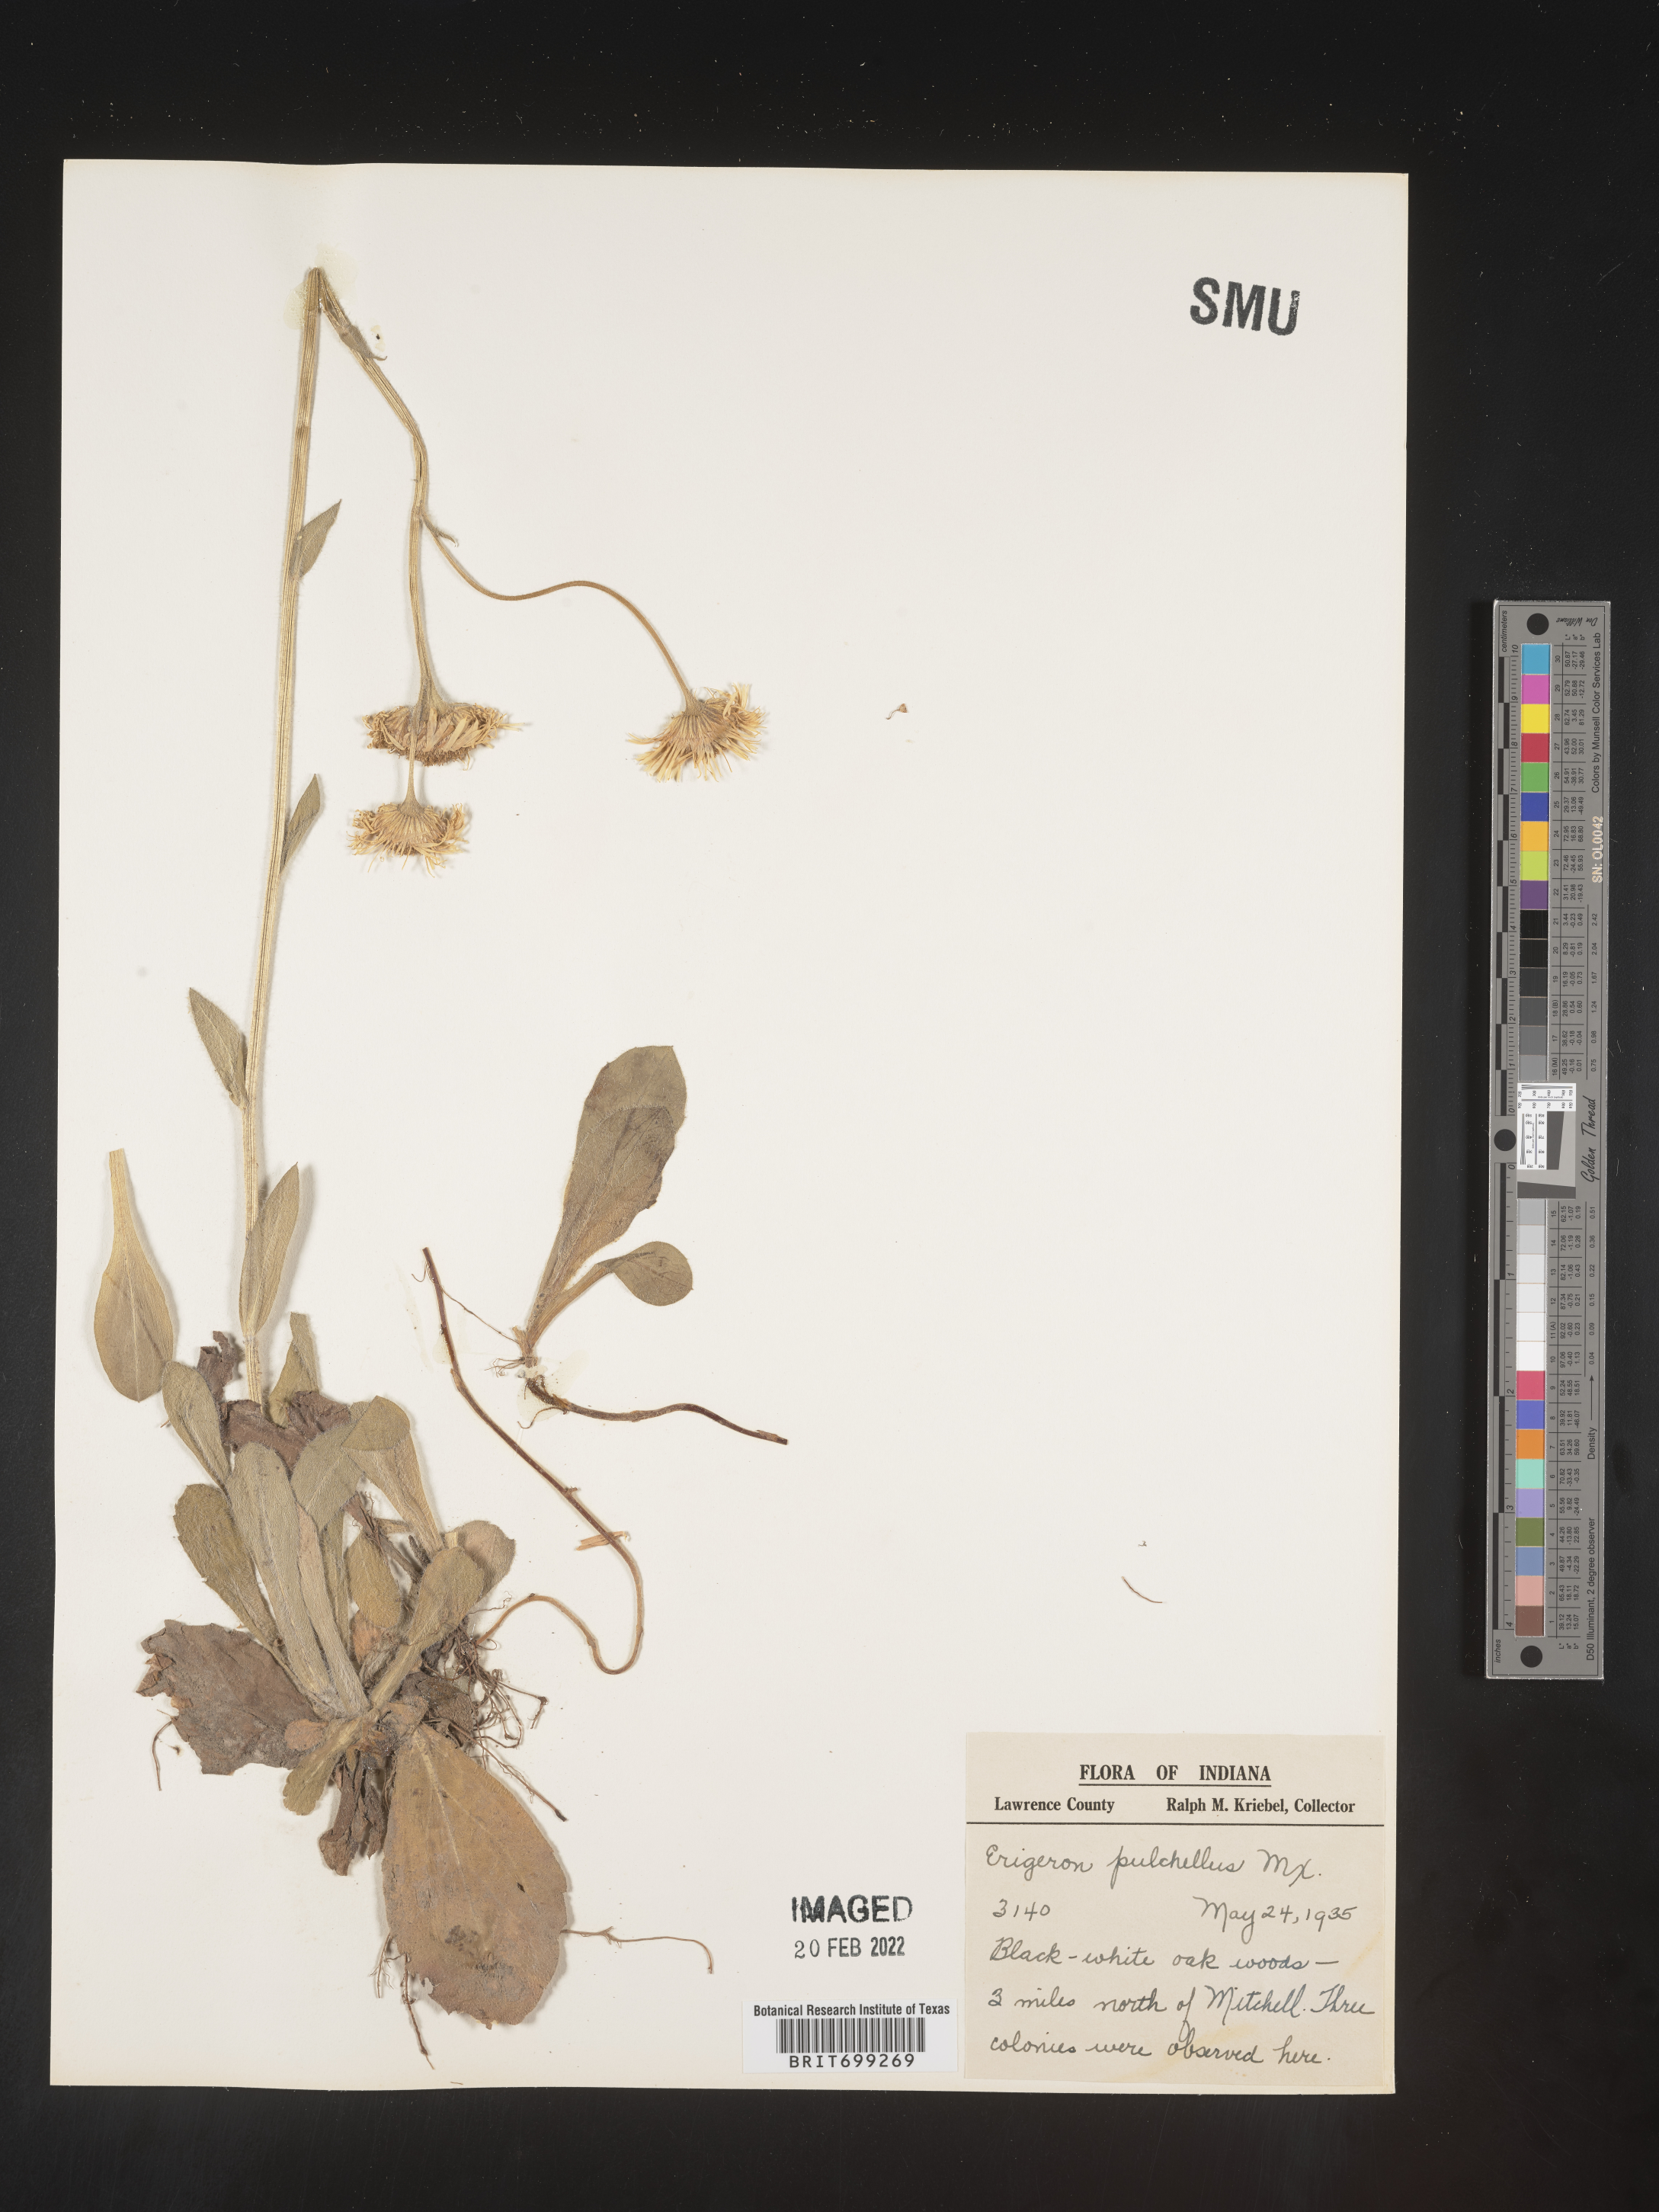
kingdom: Plantae
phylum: Tracheophyta
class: Magnoliopsida
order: Asterales
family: Asteraceae
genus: Erigeron
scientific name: Erigeron pulchellus
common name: Hairy fleabane
